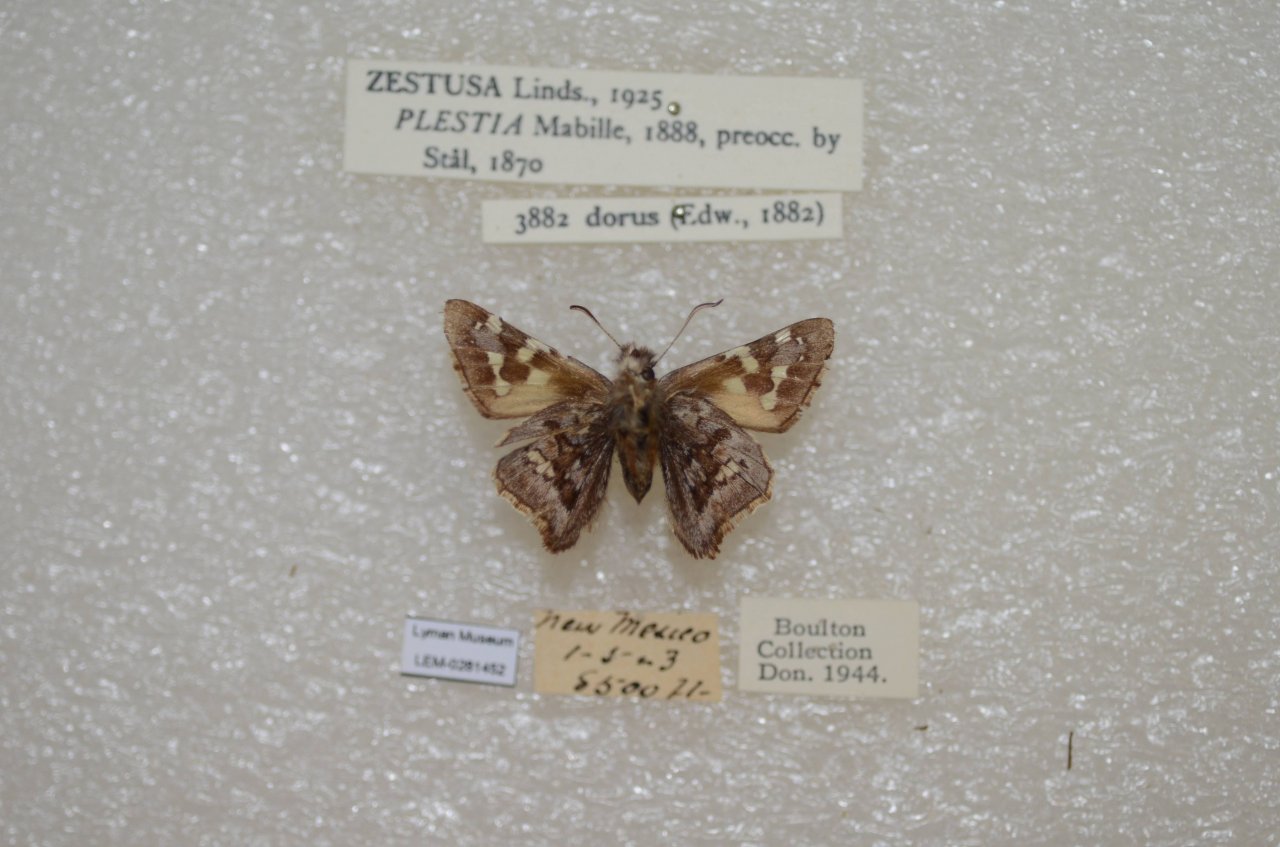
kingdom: Animalia
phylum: Arthropoda
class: Insecta
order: Lepidoptera
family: Hesperiidae
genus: Zestusa
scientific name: Zestusa dorus
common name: Short-tailed Skipper
